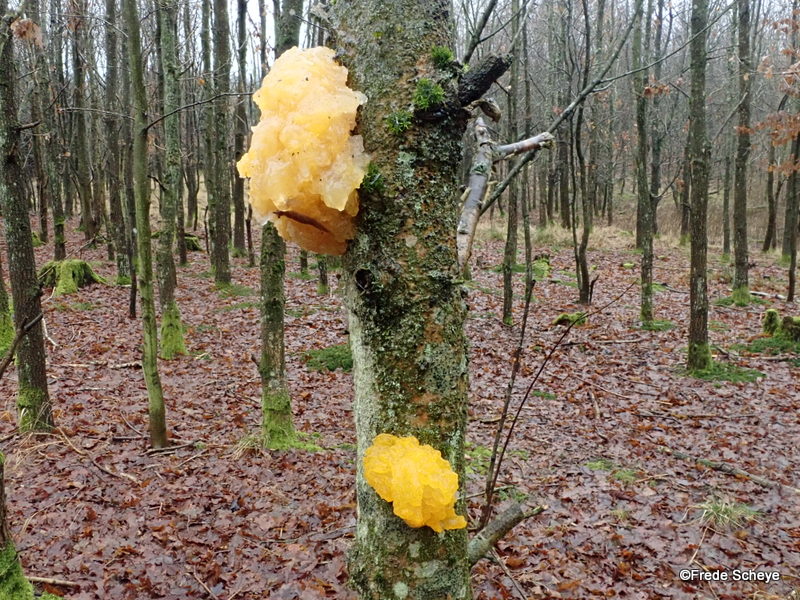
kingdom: Fungi
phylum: Basidiomycota
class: Tremellomycetes
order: Tremellales
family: Tremellaceae
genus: Tremella
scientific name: Tremella mesenterica
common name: gul bævresvamp
